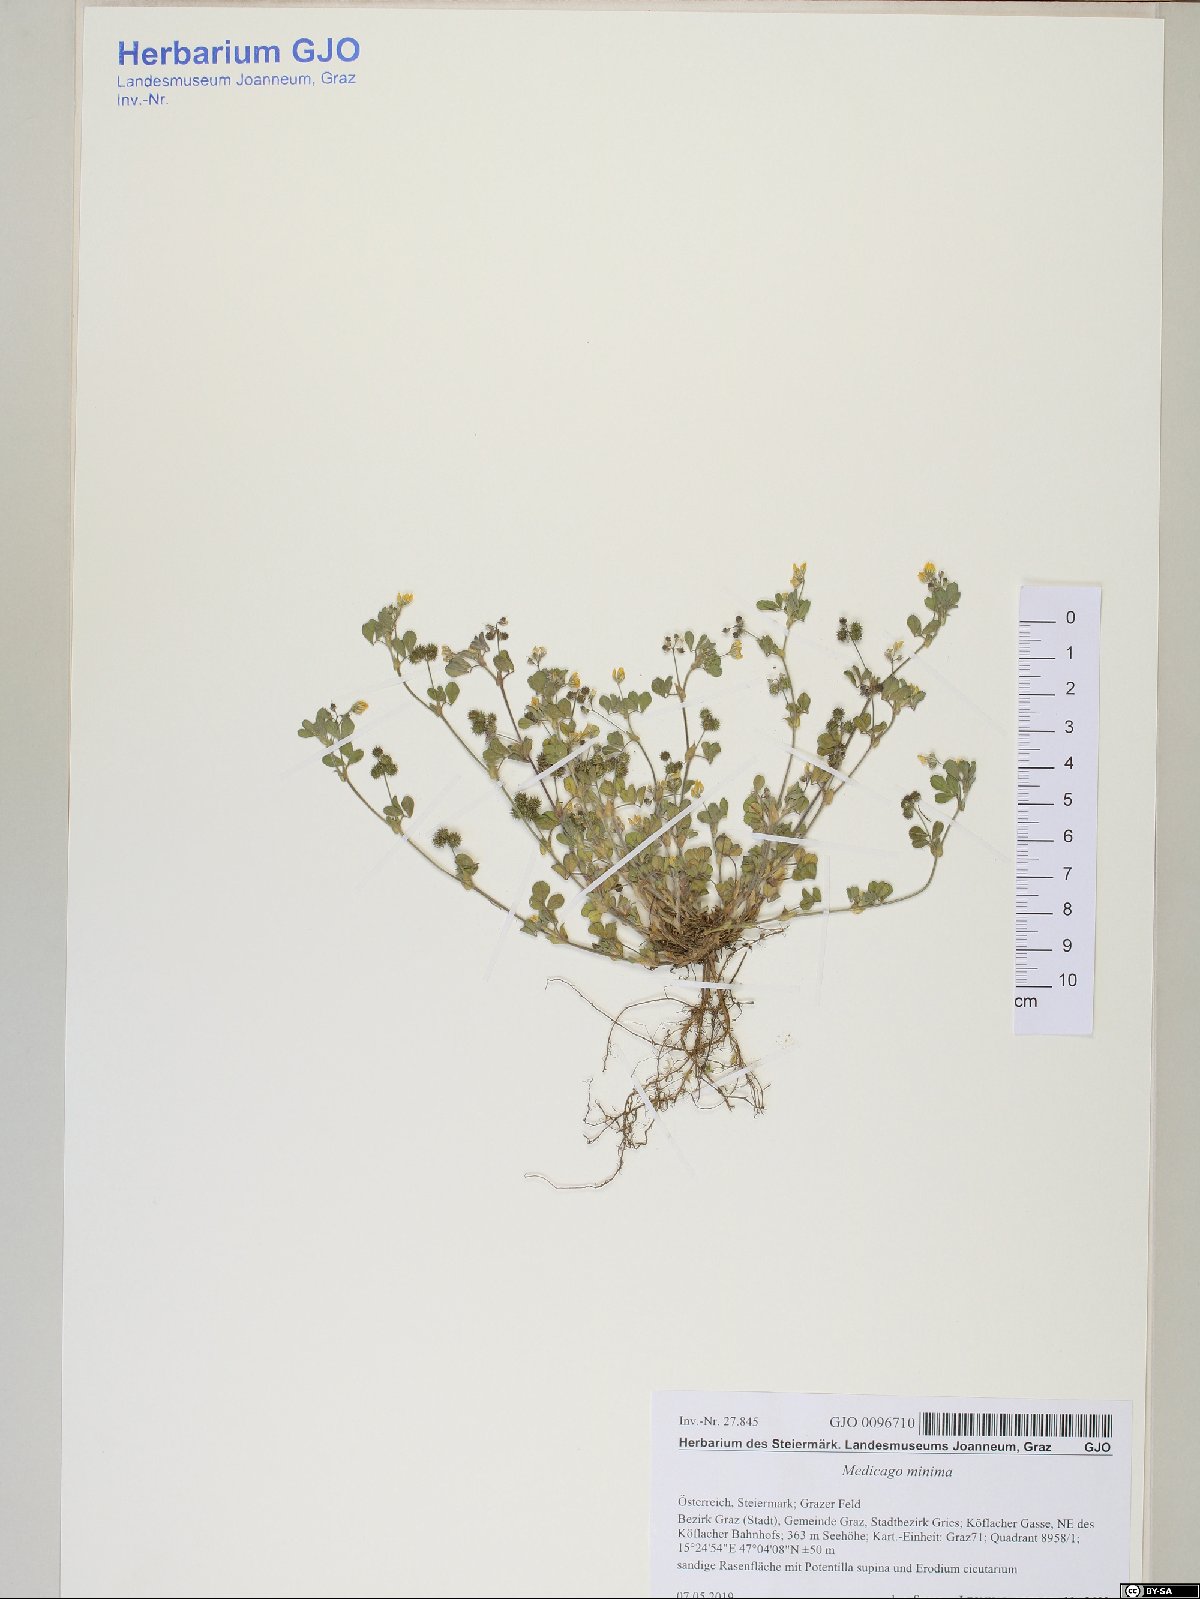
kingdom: Plantae
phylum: Tracheophyta
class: Magnoliopsida
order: Fabales
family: Fabaceae
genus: Medicago
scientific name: Medicago minima
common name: Little bur-clover
